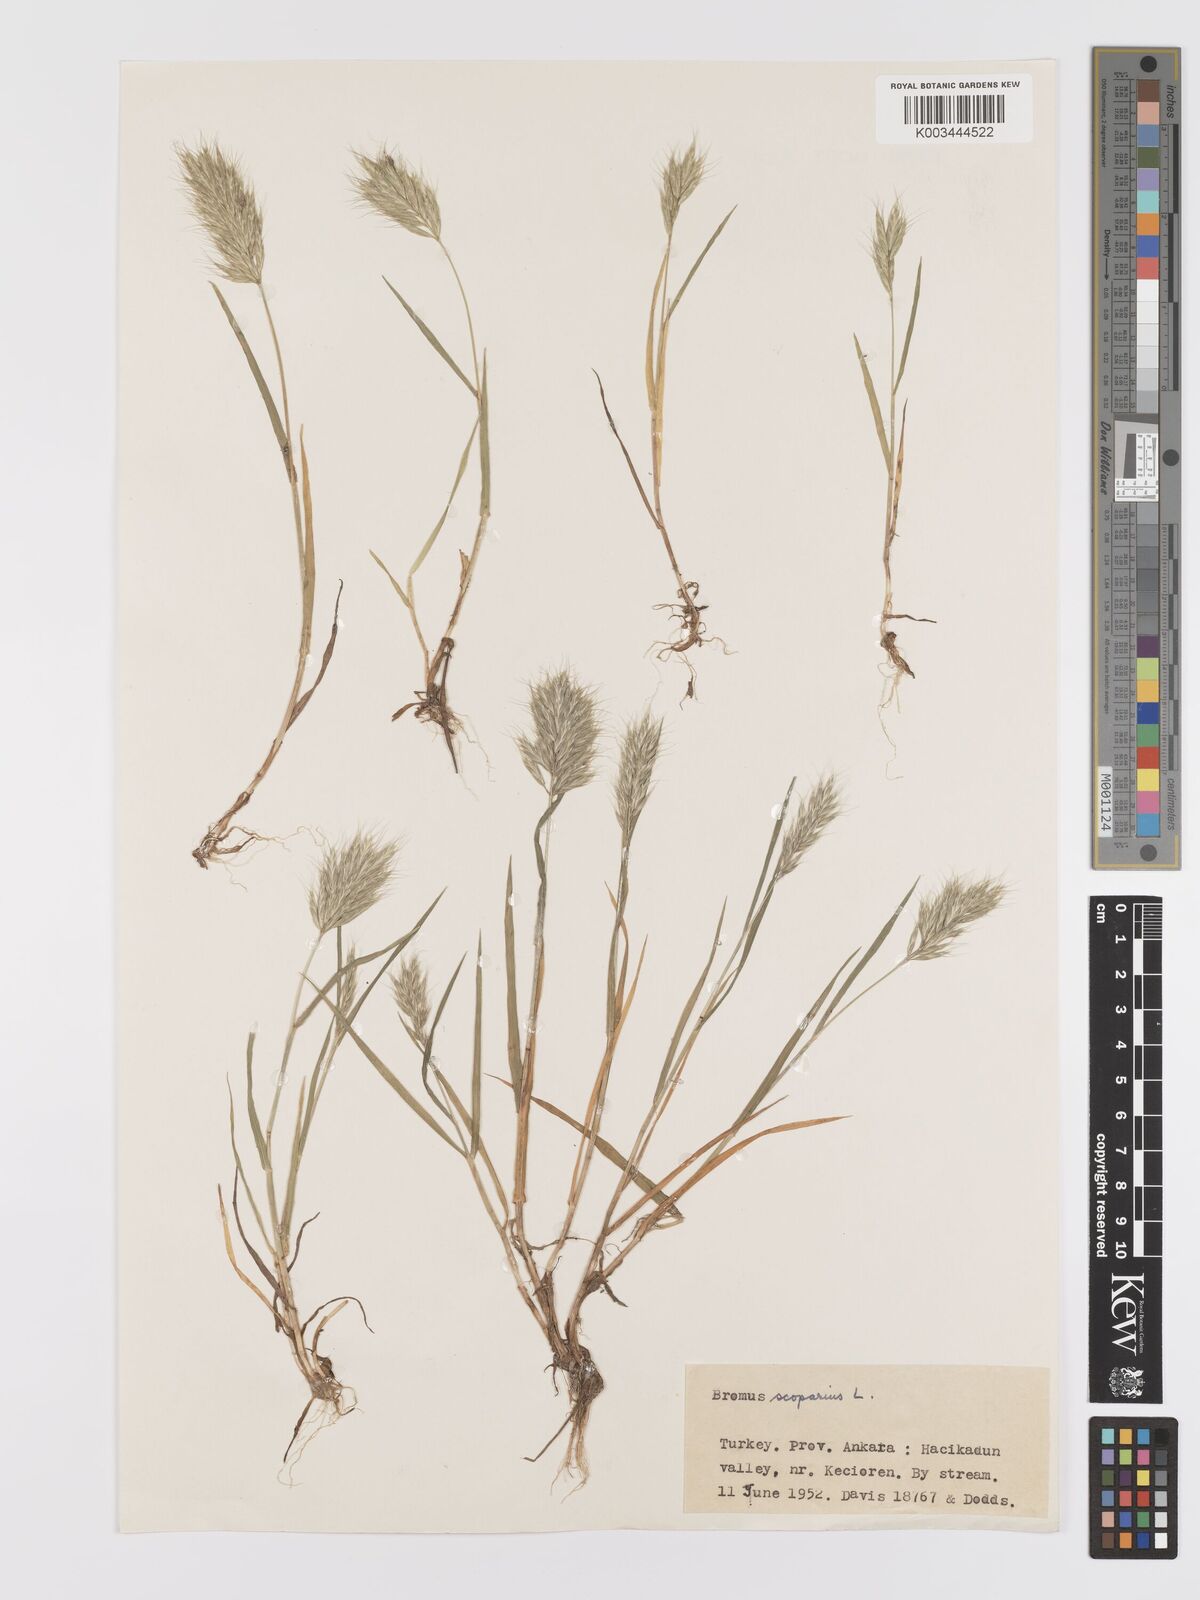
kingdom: Plantae
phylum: Tracheophyta
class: Liliopsida
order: Poales
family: Poaceae
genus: Bromus
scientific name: Bromus scoparius
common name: Broom brome
